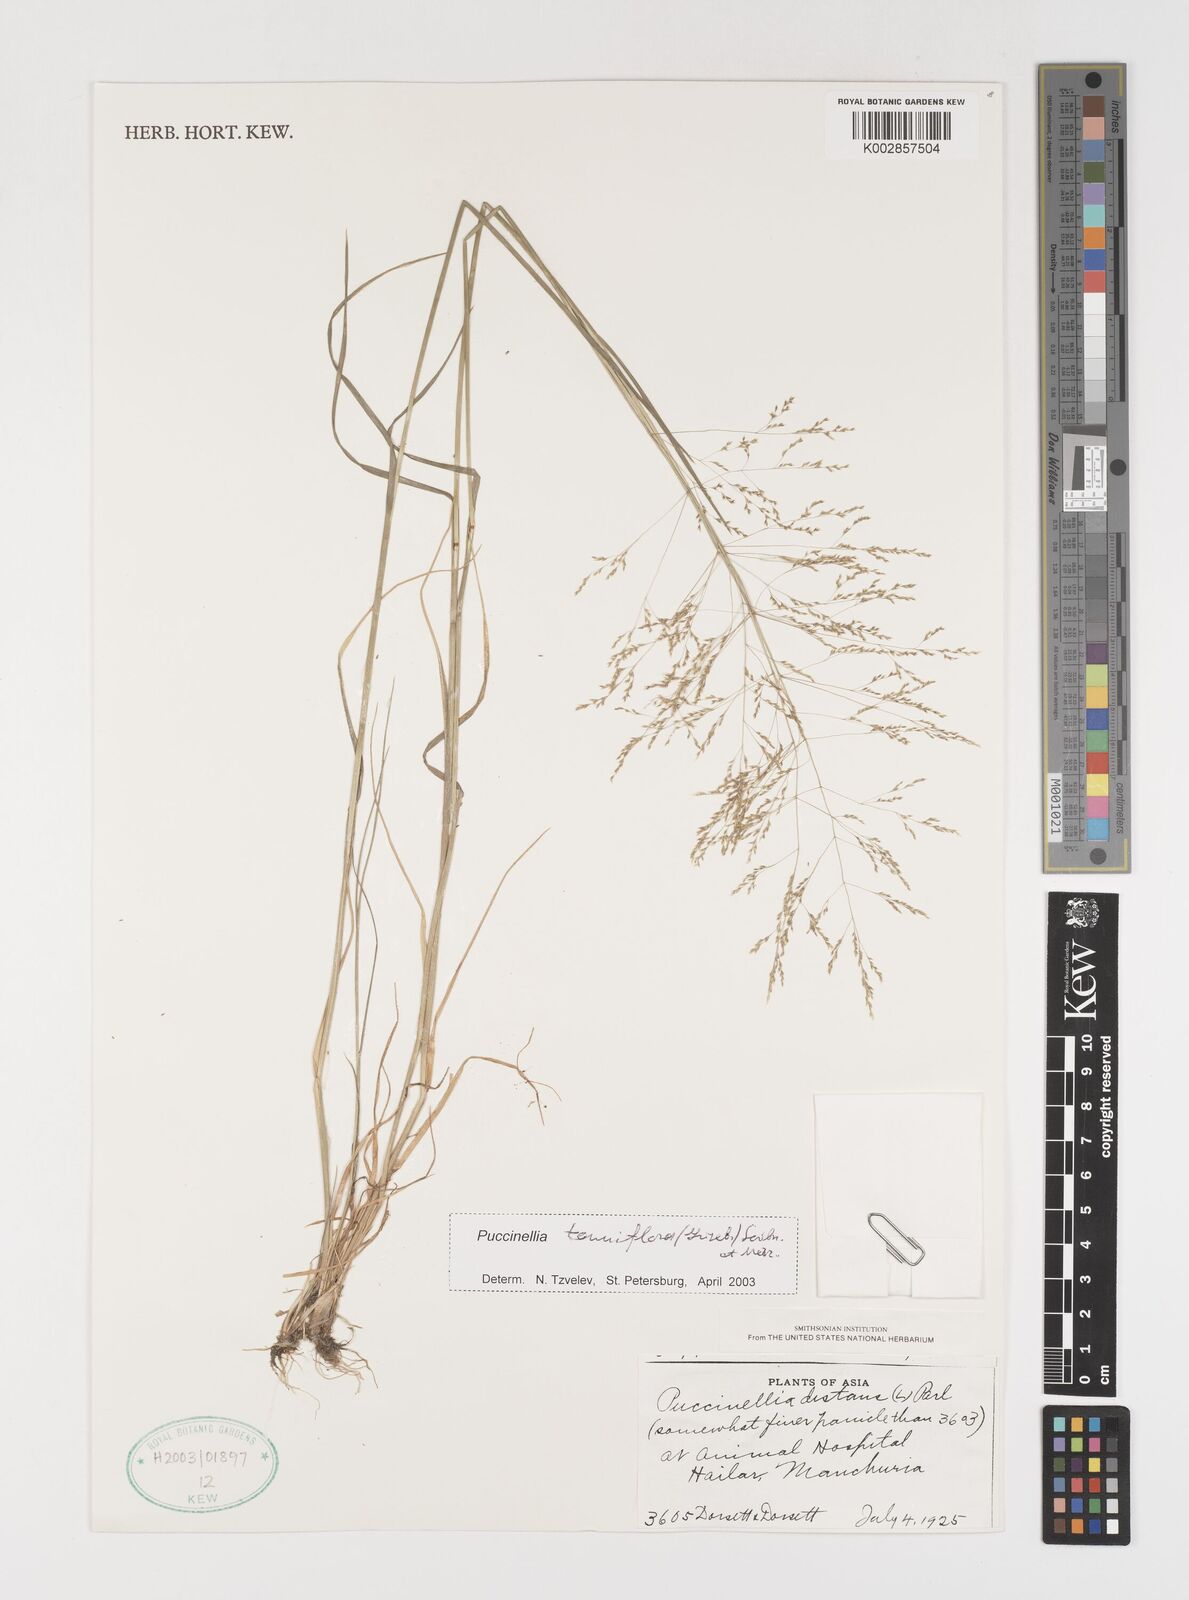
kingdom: Plantae
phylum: Tracheophyta
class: Liliopsida
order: Poales
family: Poaceae
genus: Puccinellia
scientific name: Puccinellia tenuiflora
